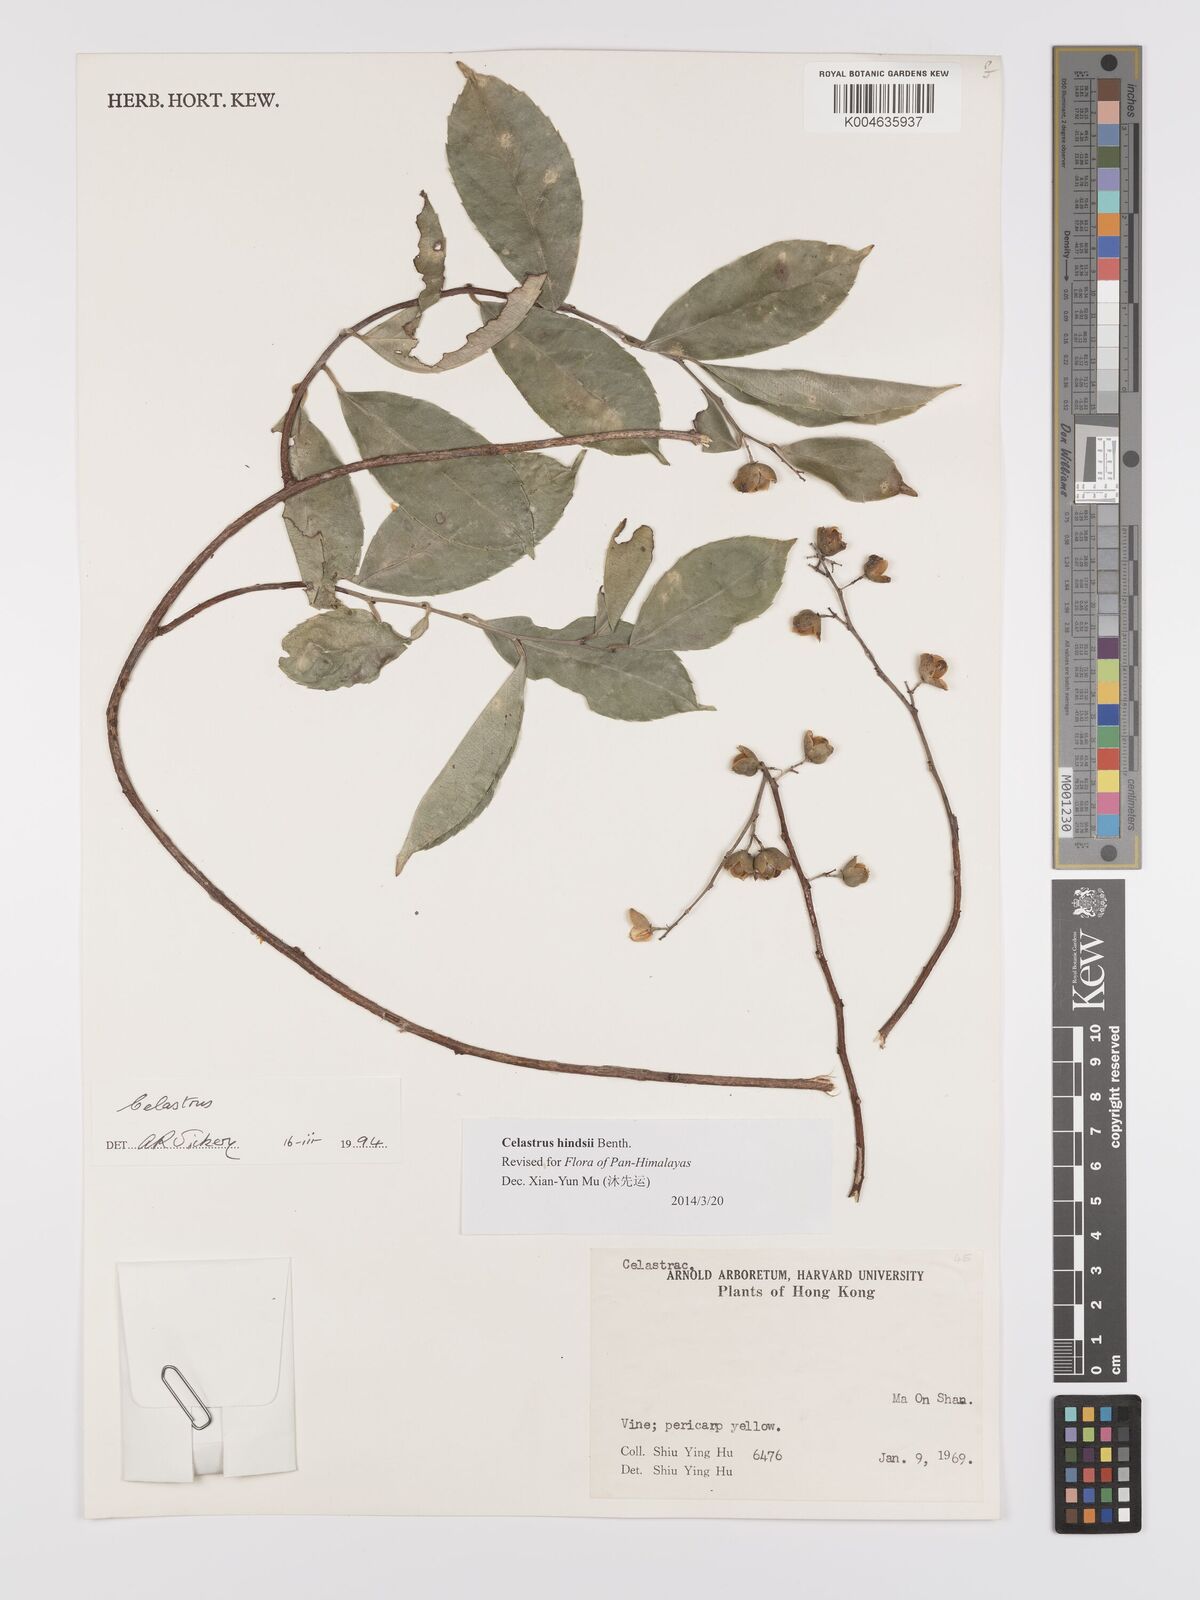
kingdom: Plantae
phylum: Tracheophyta
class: Magnoliopsida
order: Celastrales
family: Celastraceae
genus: Celastrus
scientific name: Celastrus hindsii
